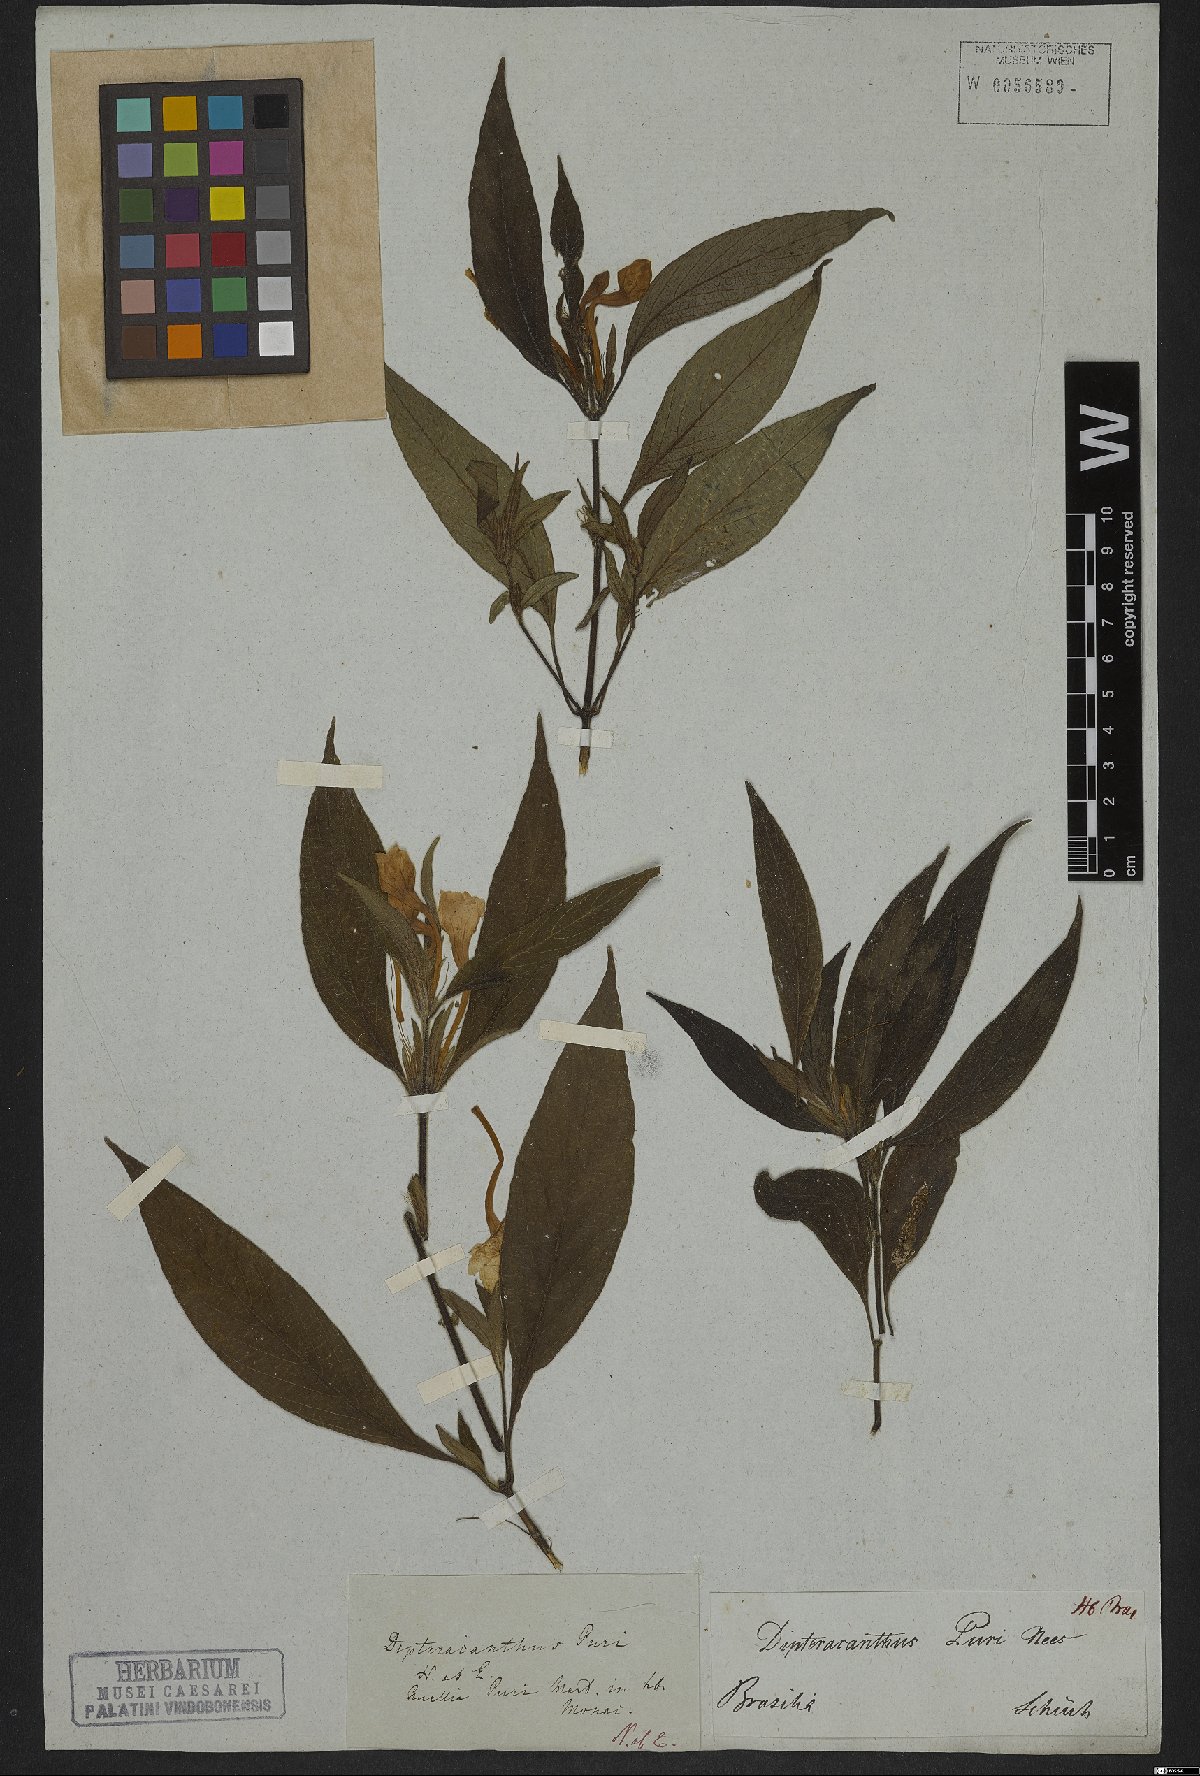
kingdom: Plantae
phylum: Tracheophyta
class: Magnoliopsida
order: Lamiales
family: Acanthaceae
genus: Ruellia
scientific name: Ruellia purii
